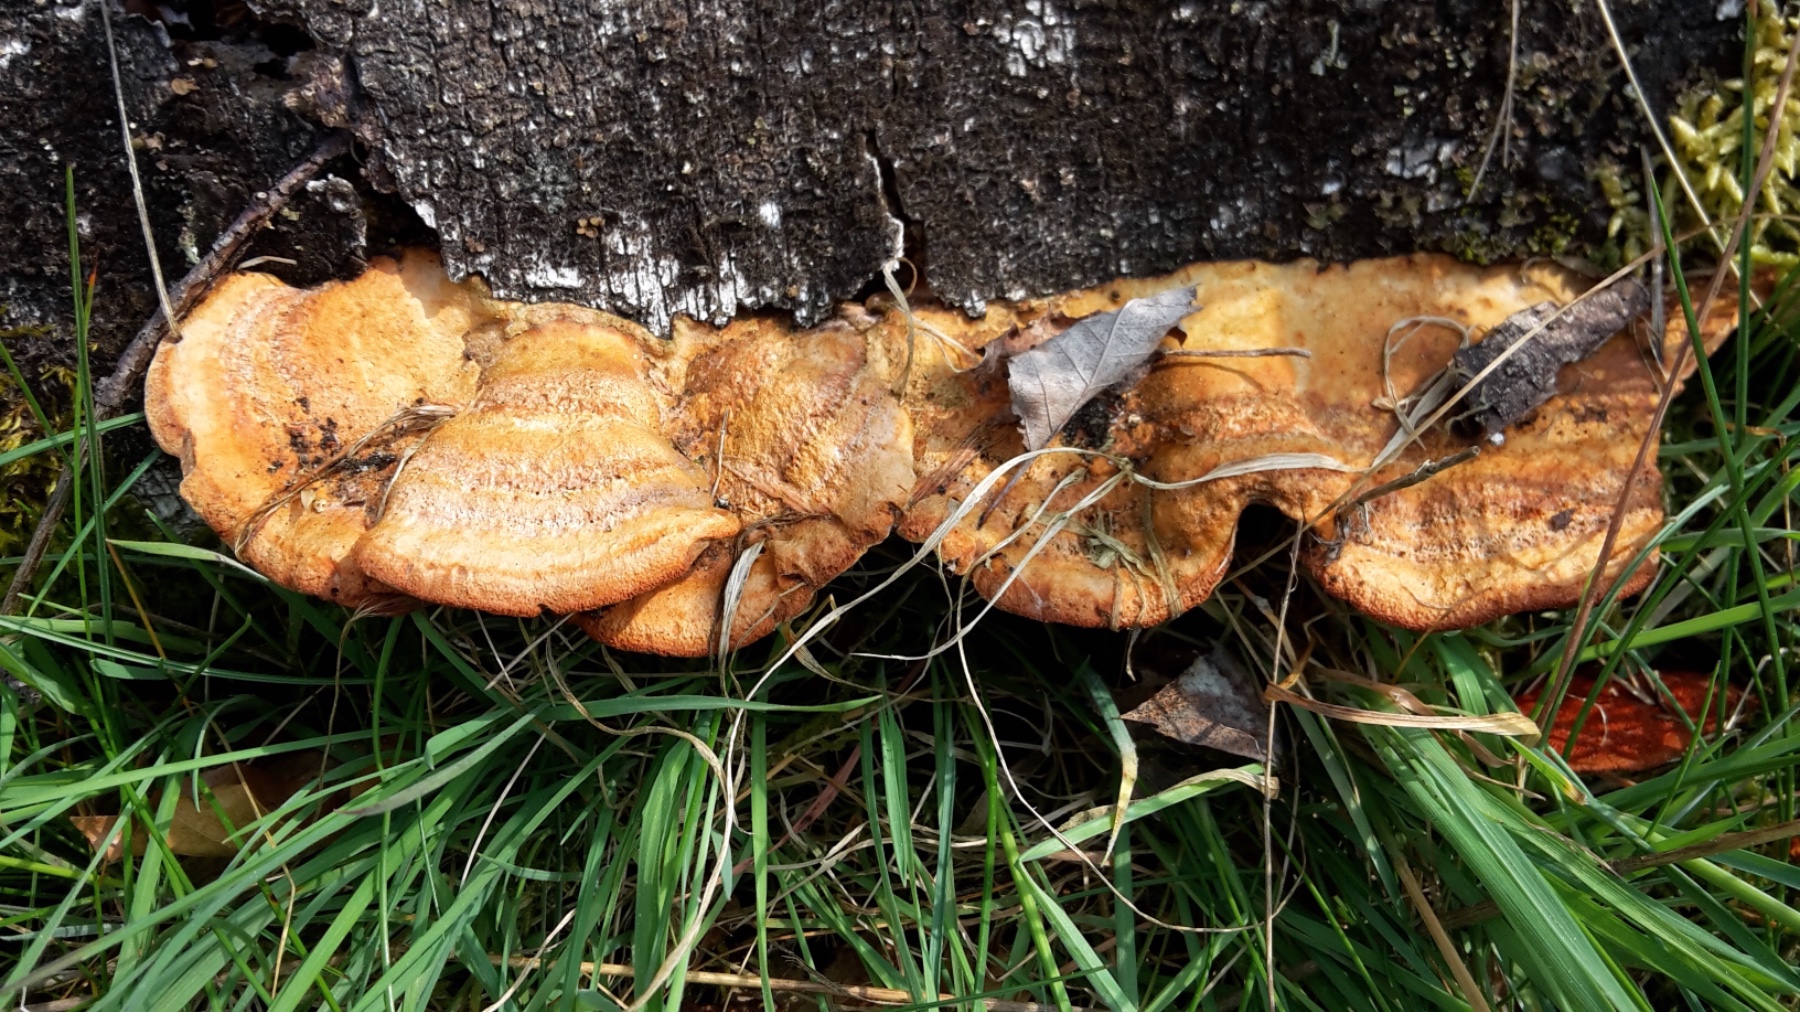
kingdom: Fungi
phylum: Basidiomycota
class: Agaricomycetes
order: Polyporales
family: Polyporaceae
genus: Trametes
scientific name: Trametes cinnabarina
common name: cinnoberporesvamp
